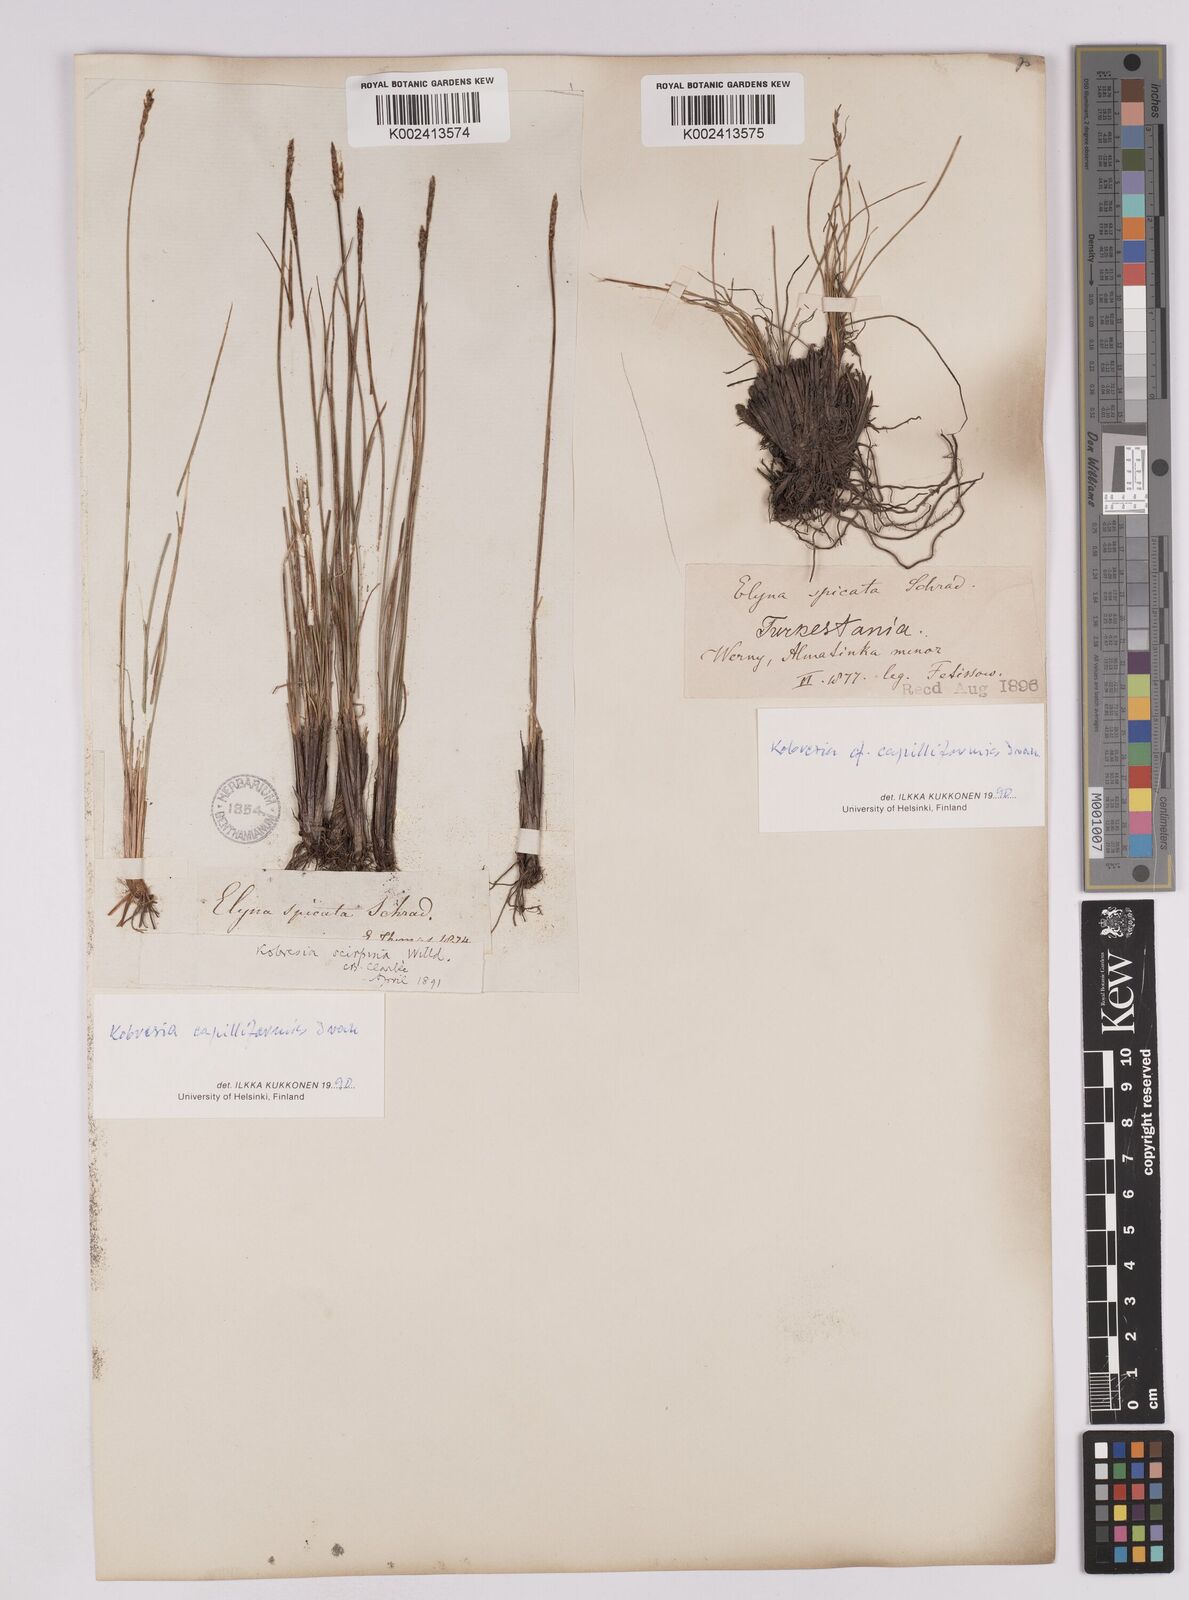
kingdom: Plantae
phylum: Tracheophyta
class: Liliopsida
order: Poales
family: Cyperaceae
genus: Carex
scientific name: Carex capillifolia
